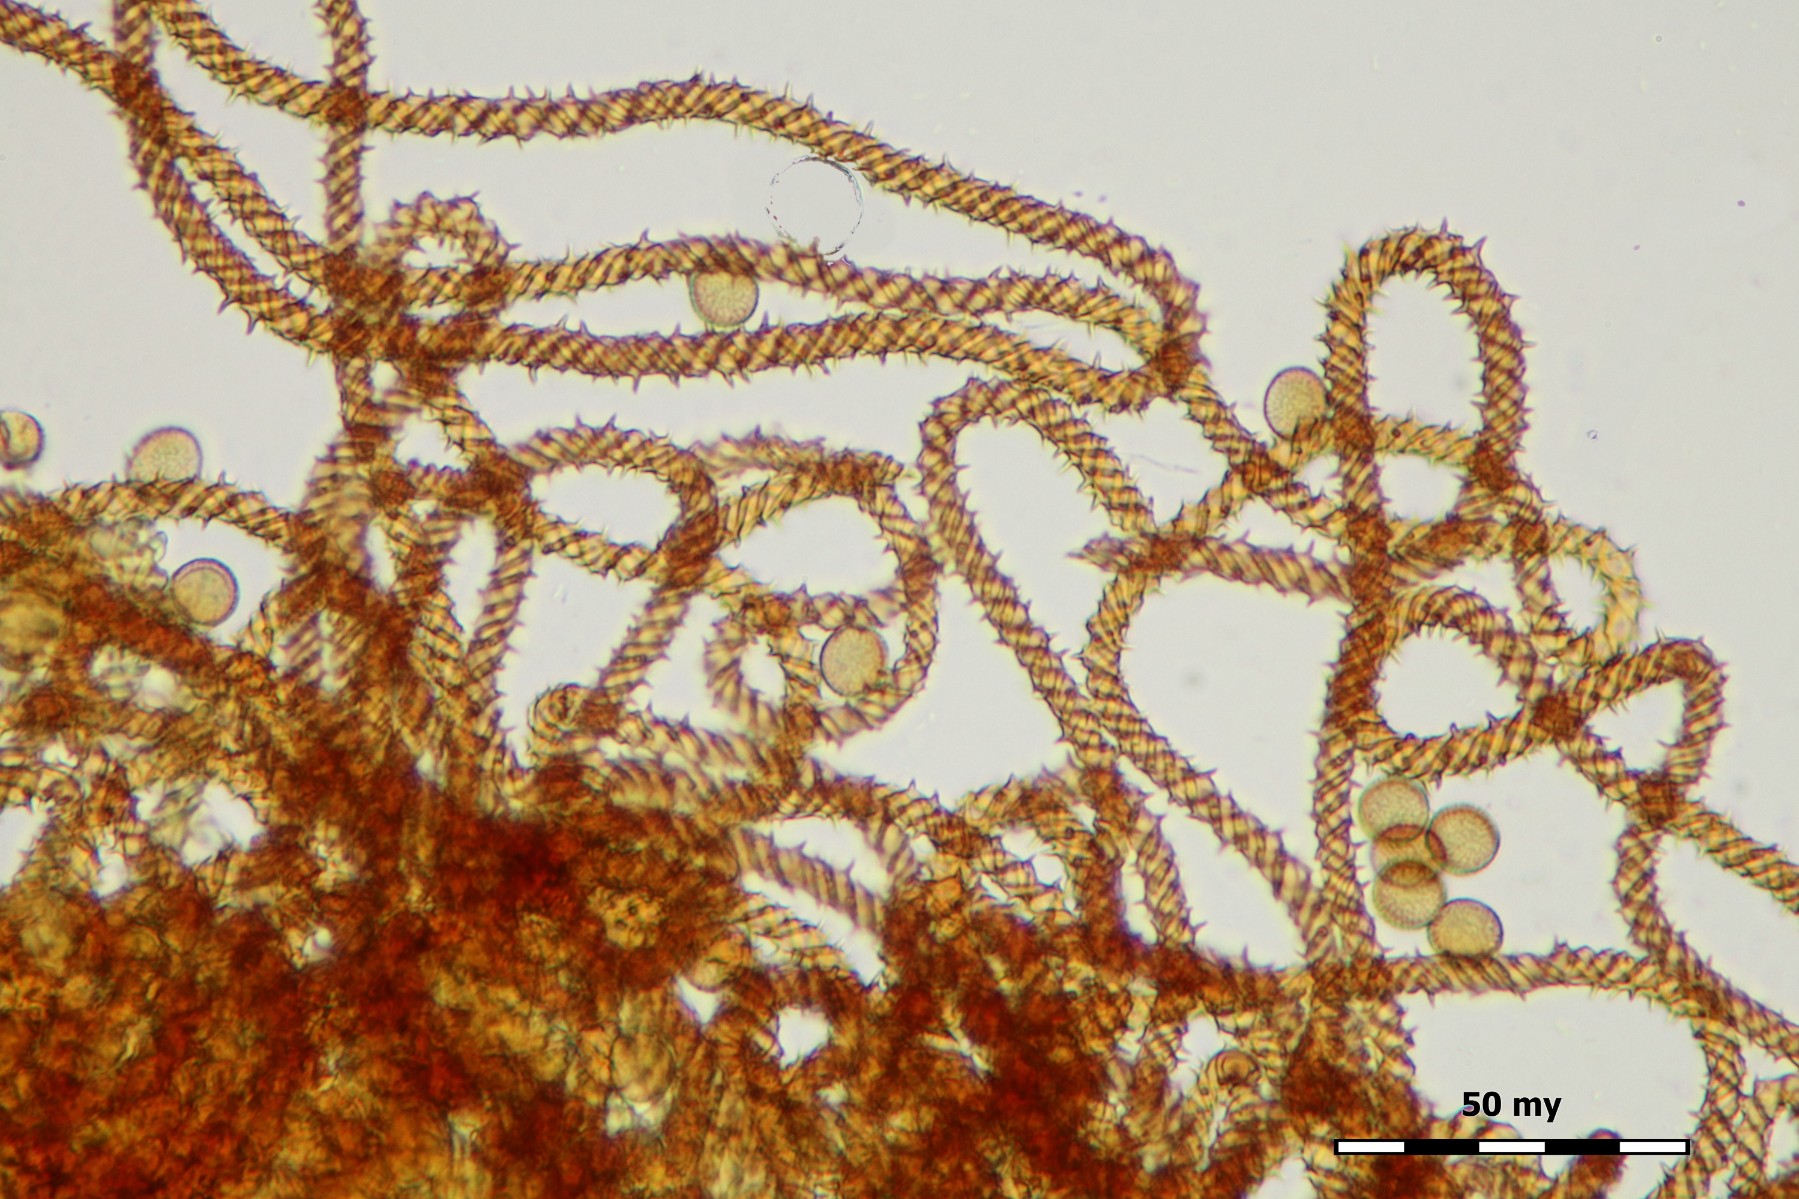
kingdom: Protozoa
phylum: Mycetozoa
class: Myxomycetes
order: Trichiales
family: Trichiaceae
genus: Metatrichia
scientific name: Metatrichia vesparia
